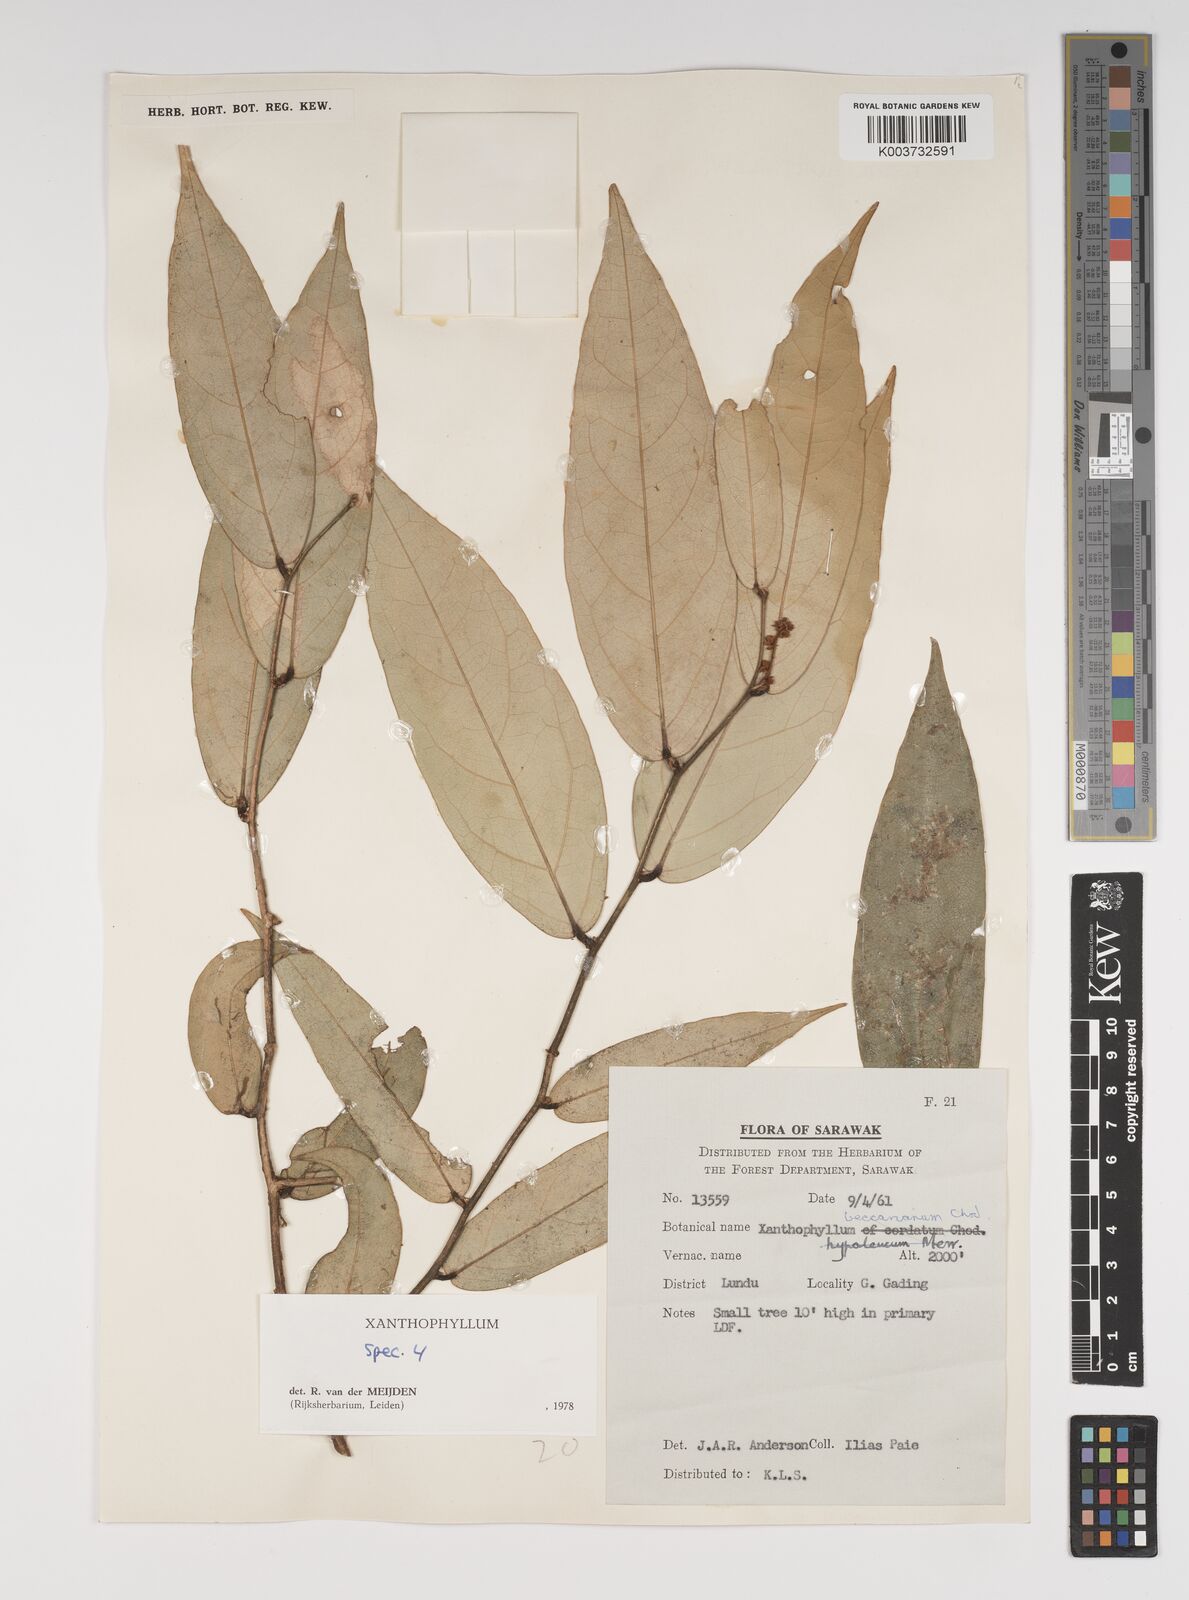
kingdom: Plantae
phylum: Tracheophyta
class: Magnoliopsida
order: Fabales
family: Polygalaceae
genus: Xanthophyllum
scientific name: Xanthophyllum
